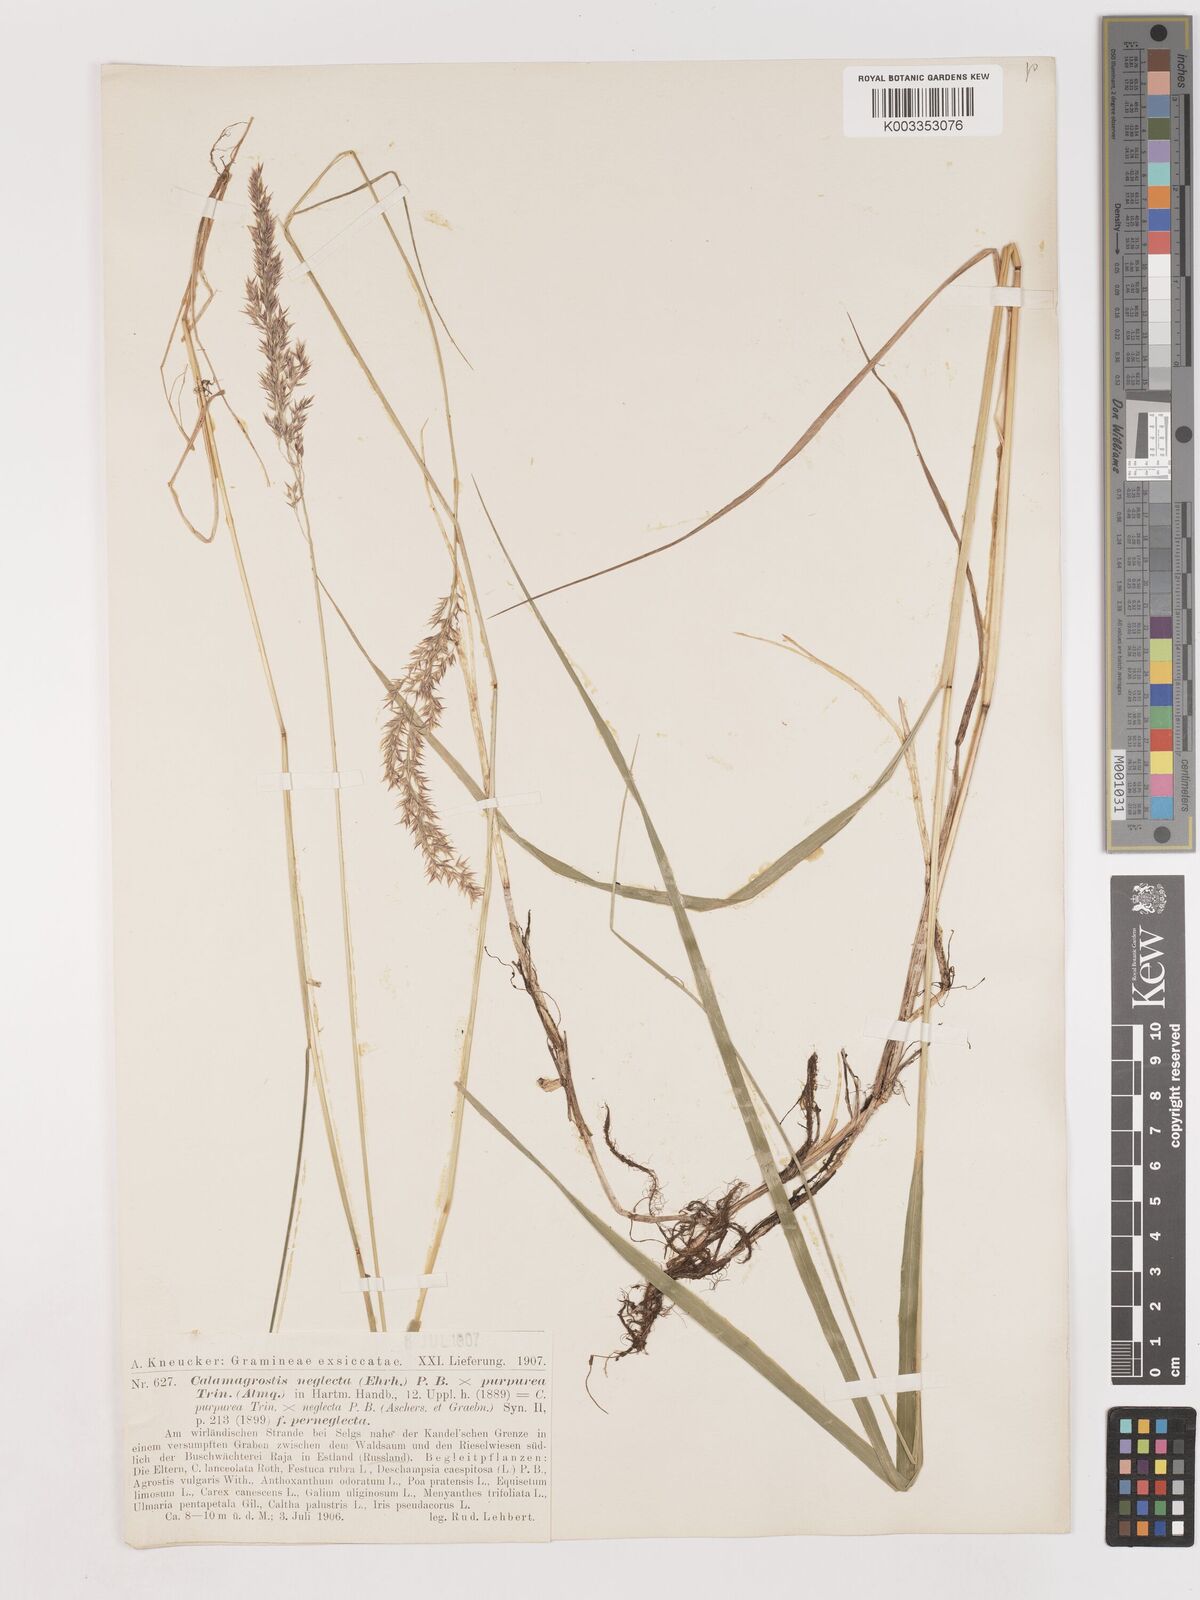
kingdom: Plantae
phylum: Tracheophyta
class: Liliopsida
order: Poales
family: Poaceae
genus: Calamagrostis
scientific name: Calamagrostis epigejos
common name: Wood small-reed
